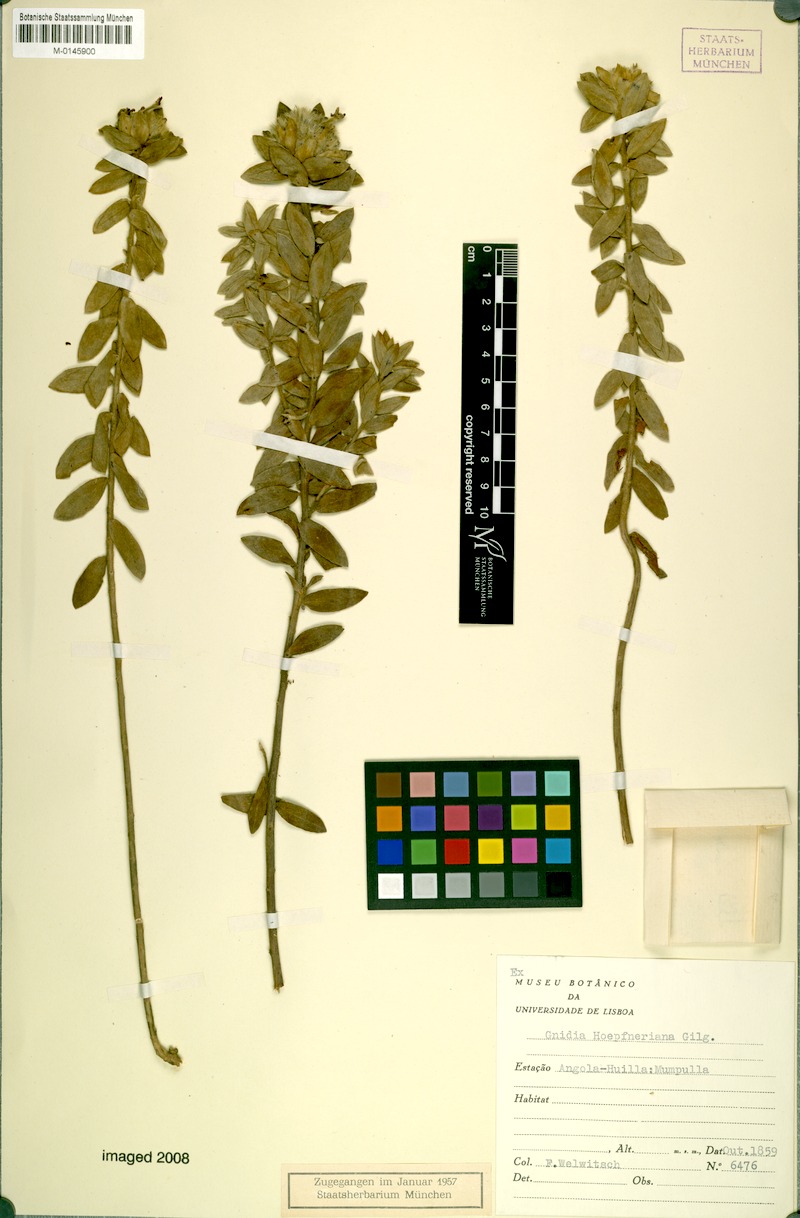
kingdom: Plantae
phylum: Tracheophyta
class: Magnoliopsida
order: Malvales
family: Thymelaeaceae
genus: Gnidia
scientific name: Gnidia kraussiana
